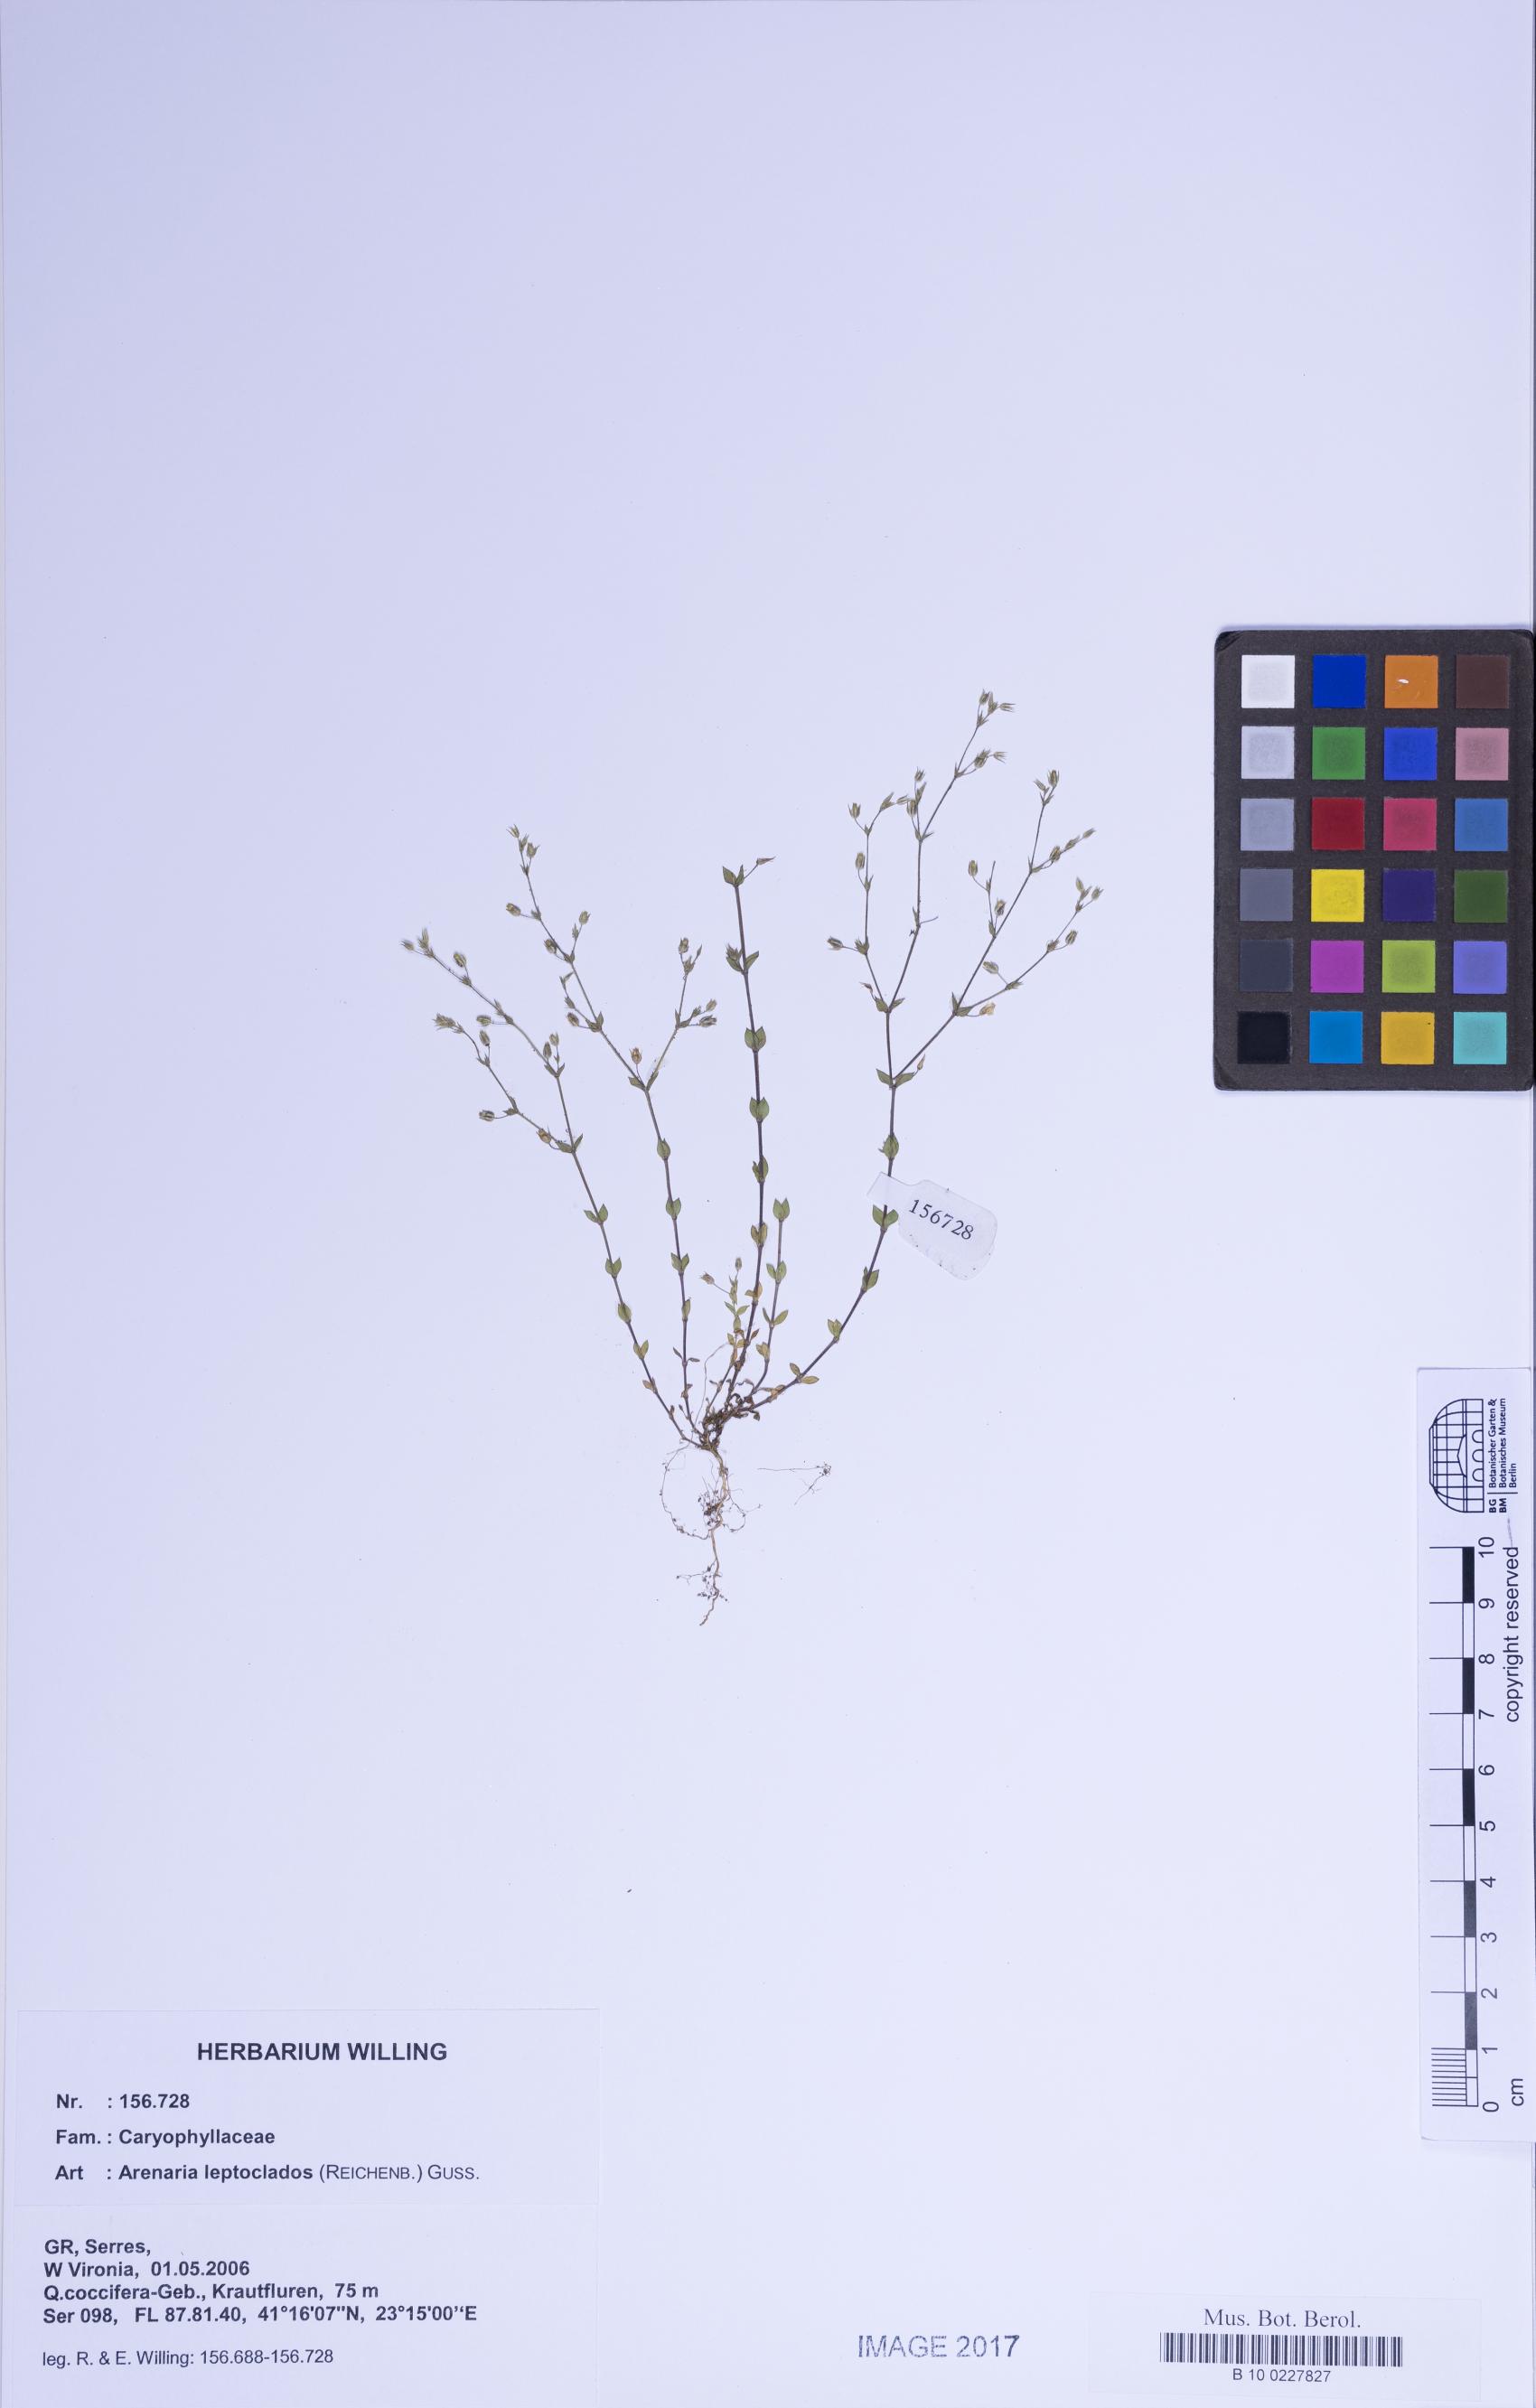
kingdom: Plantae
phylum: Tracheophyta
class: Magnoliopsida
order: Caryophyllales
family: Caryophyllaceae
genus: Arenaria
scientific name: Arenaria leptoclados
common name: Thyme-leaved sandwort
